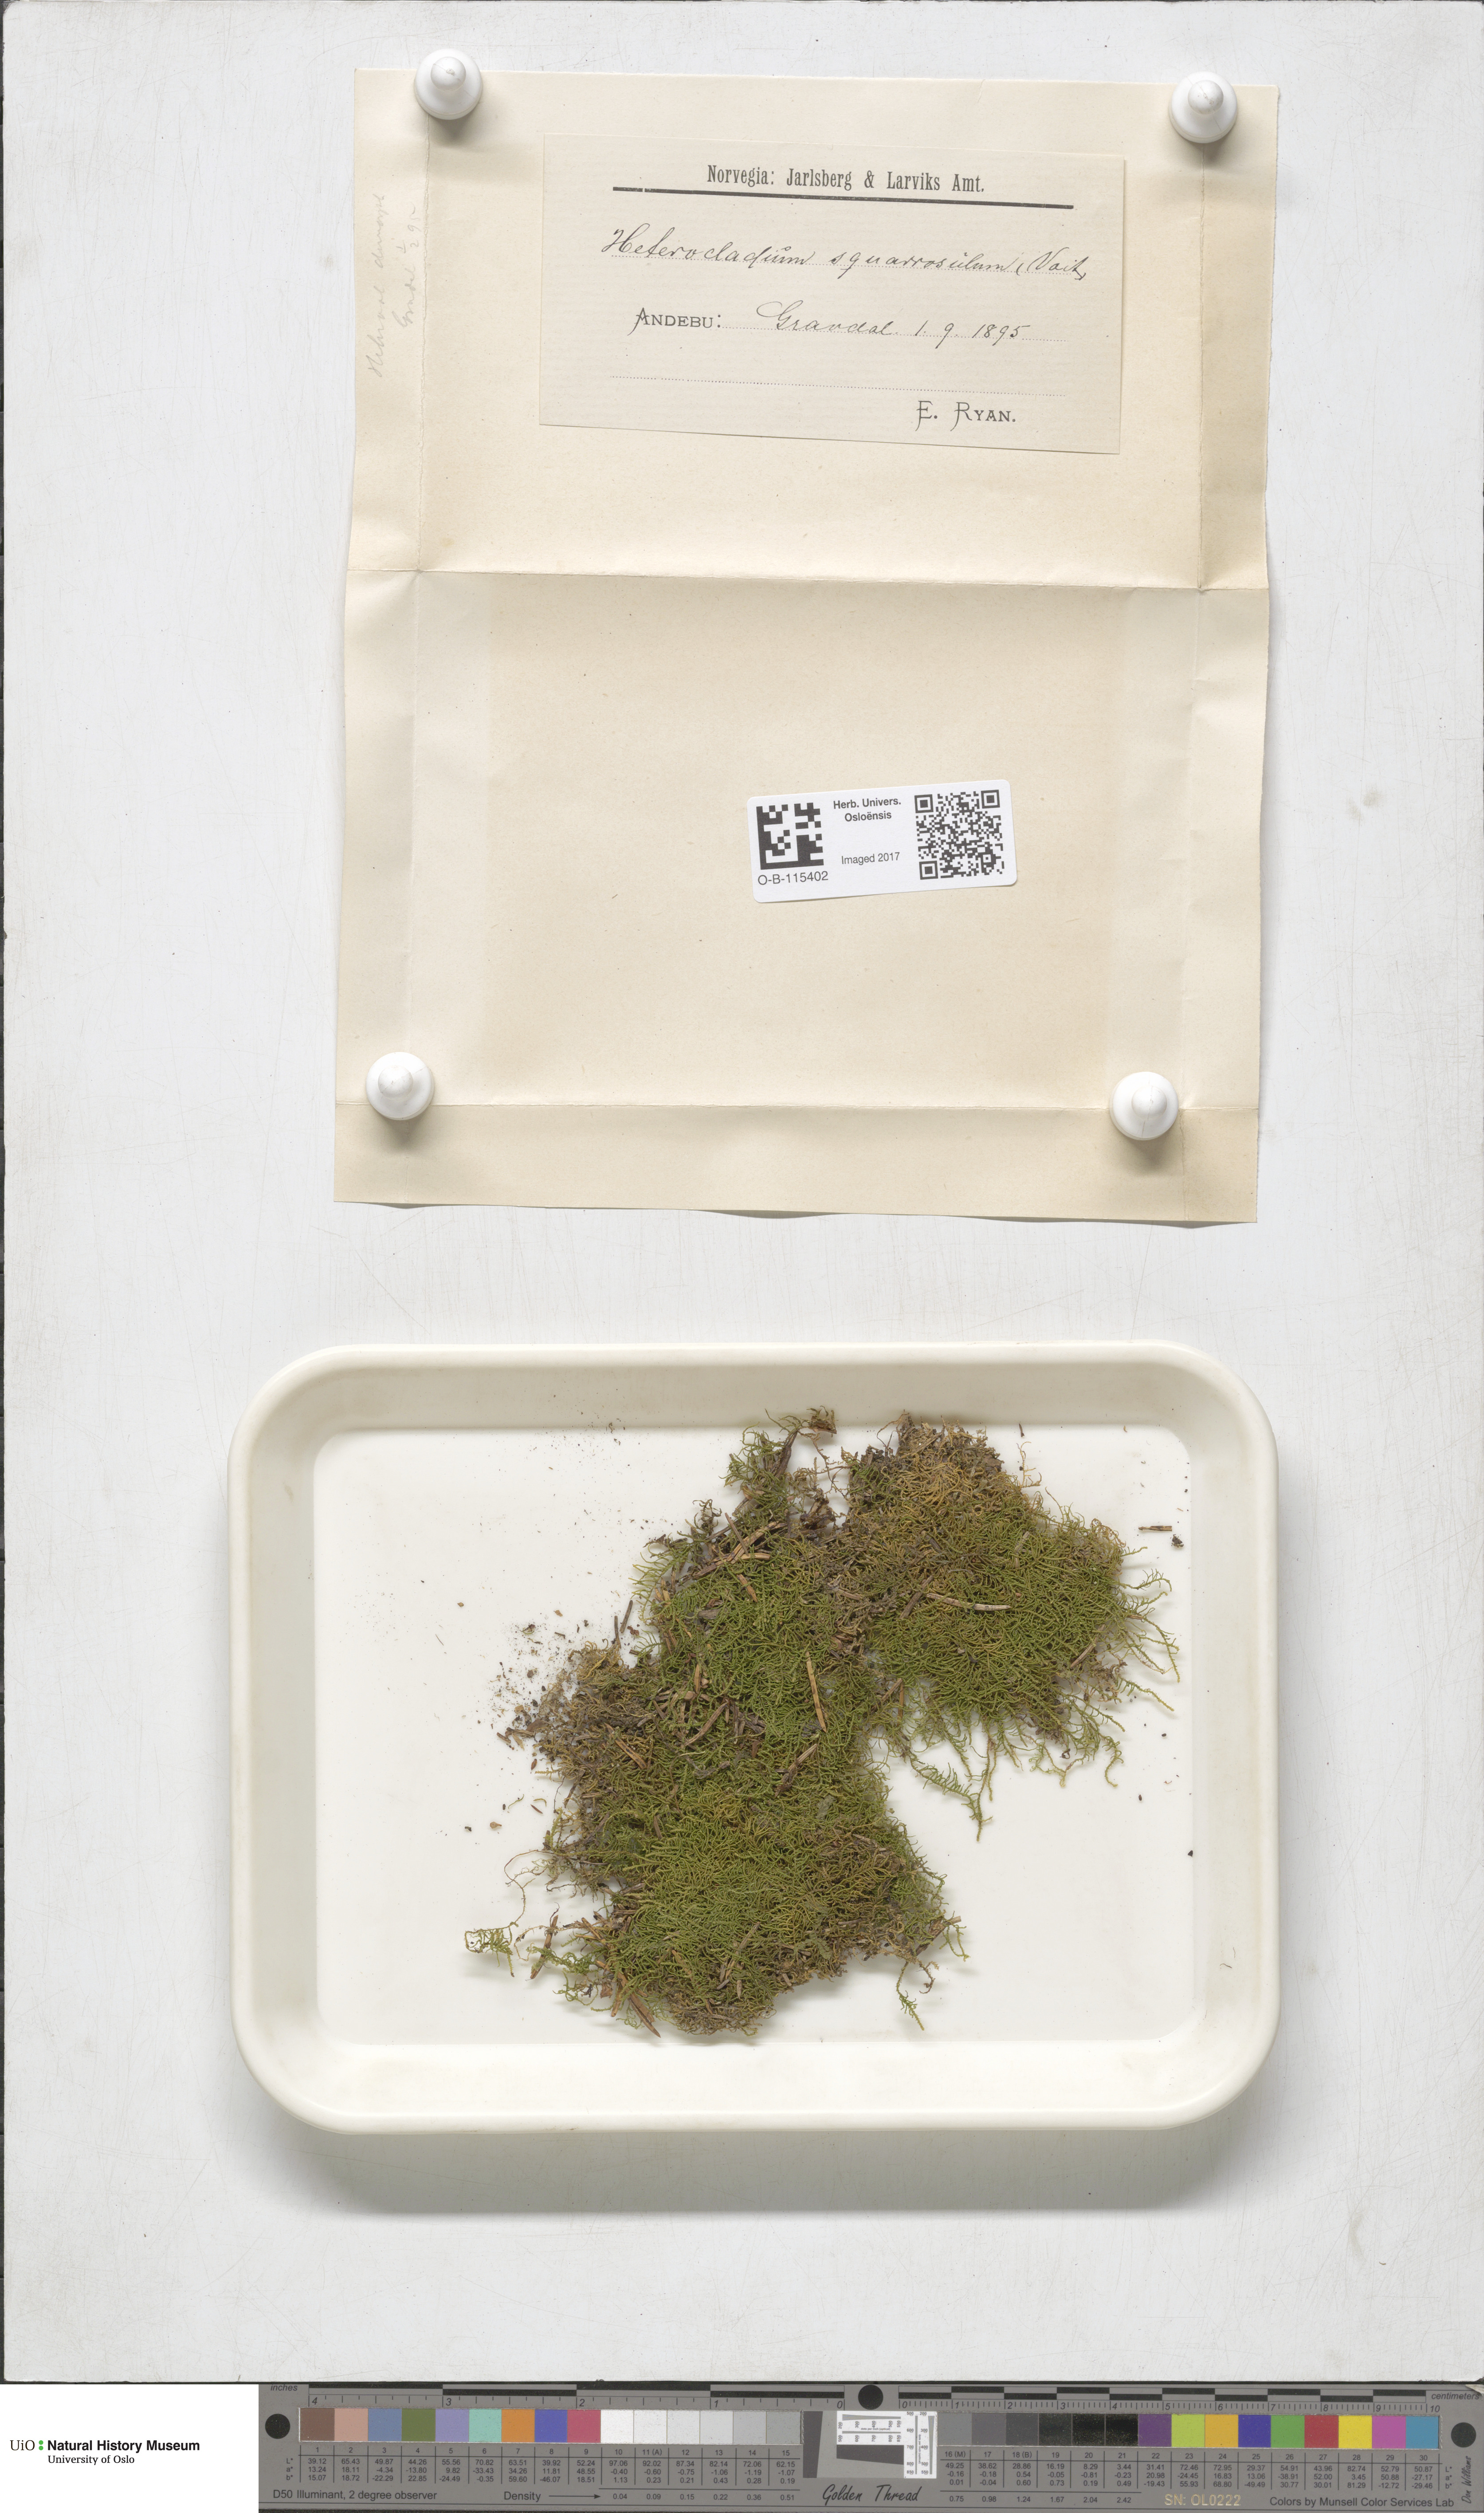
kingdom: Plantae
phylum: Bryophyta
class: Bryopsida
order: Hypnales
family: Heterocladiellaceae
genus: Heterocladiella
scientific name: Heterocladiella dimorpha
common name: Dimorphous tamarisk-moss
